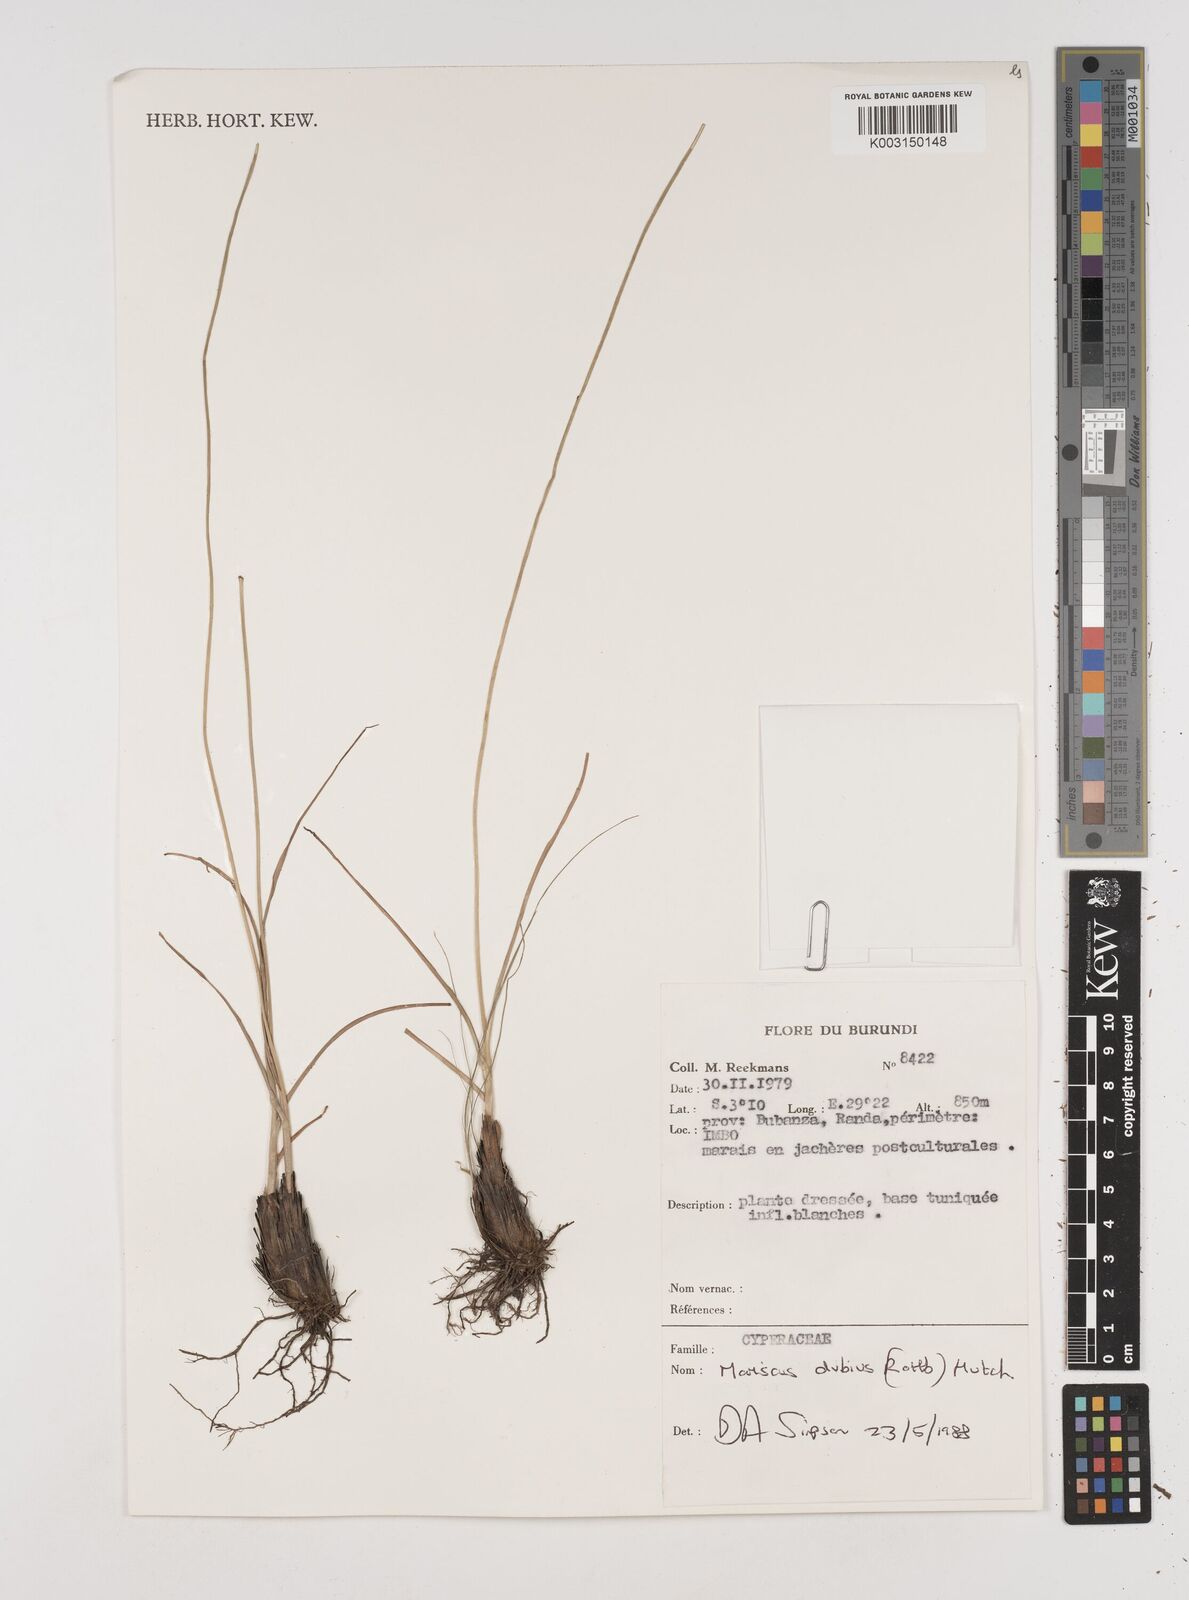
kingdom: Plantae
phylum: Tracheophyta
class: Liliopsida
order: Poales
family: Cyperaceae
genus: Cyperus
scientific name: Cyperus dubius
